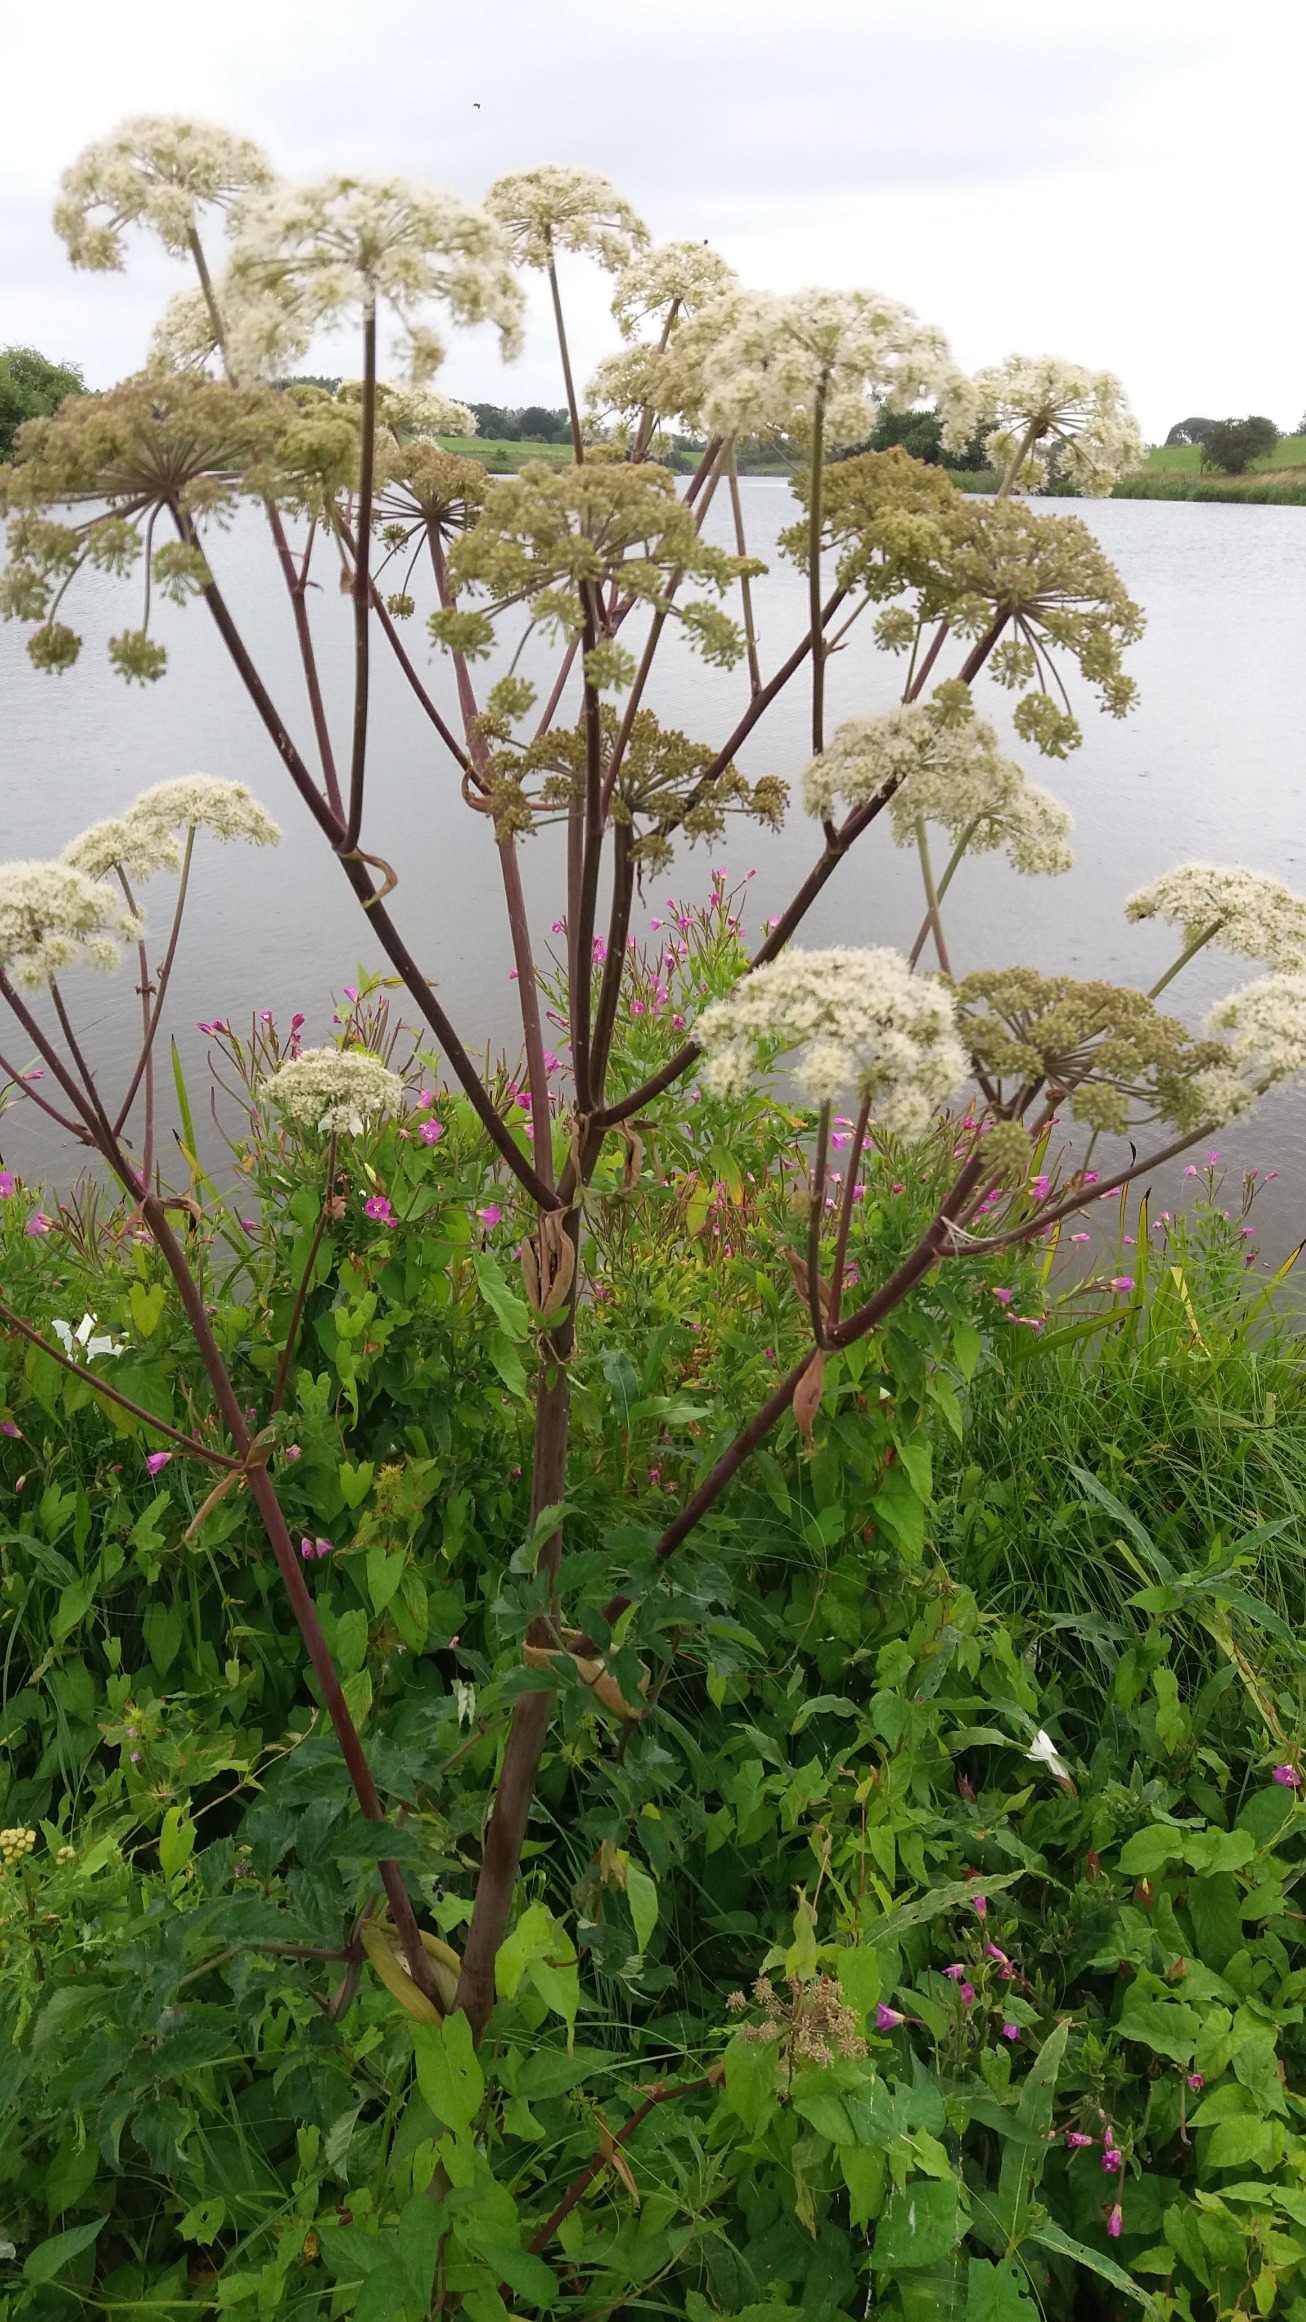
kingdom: Plantae
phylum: Tracheophyta
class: Magnoliopsida
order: Apiales
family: Apiaceae
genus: Angelica
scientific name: Angelica sylvestris
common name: Angelik
